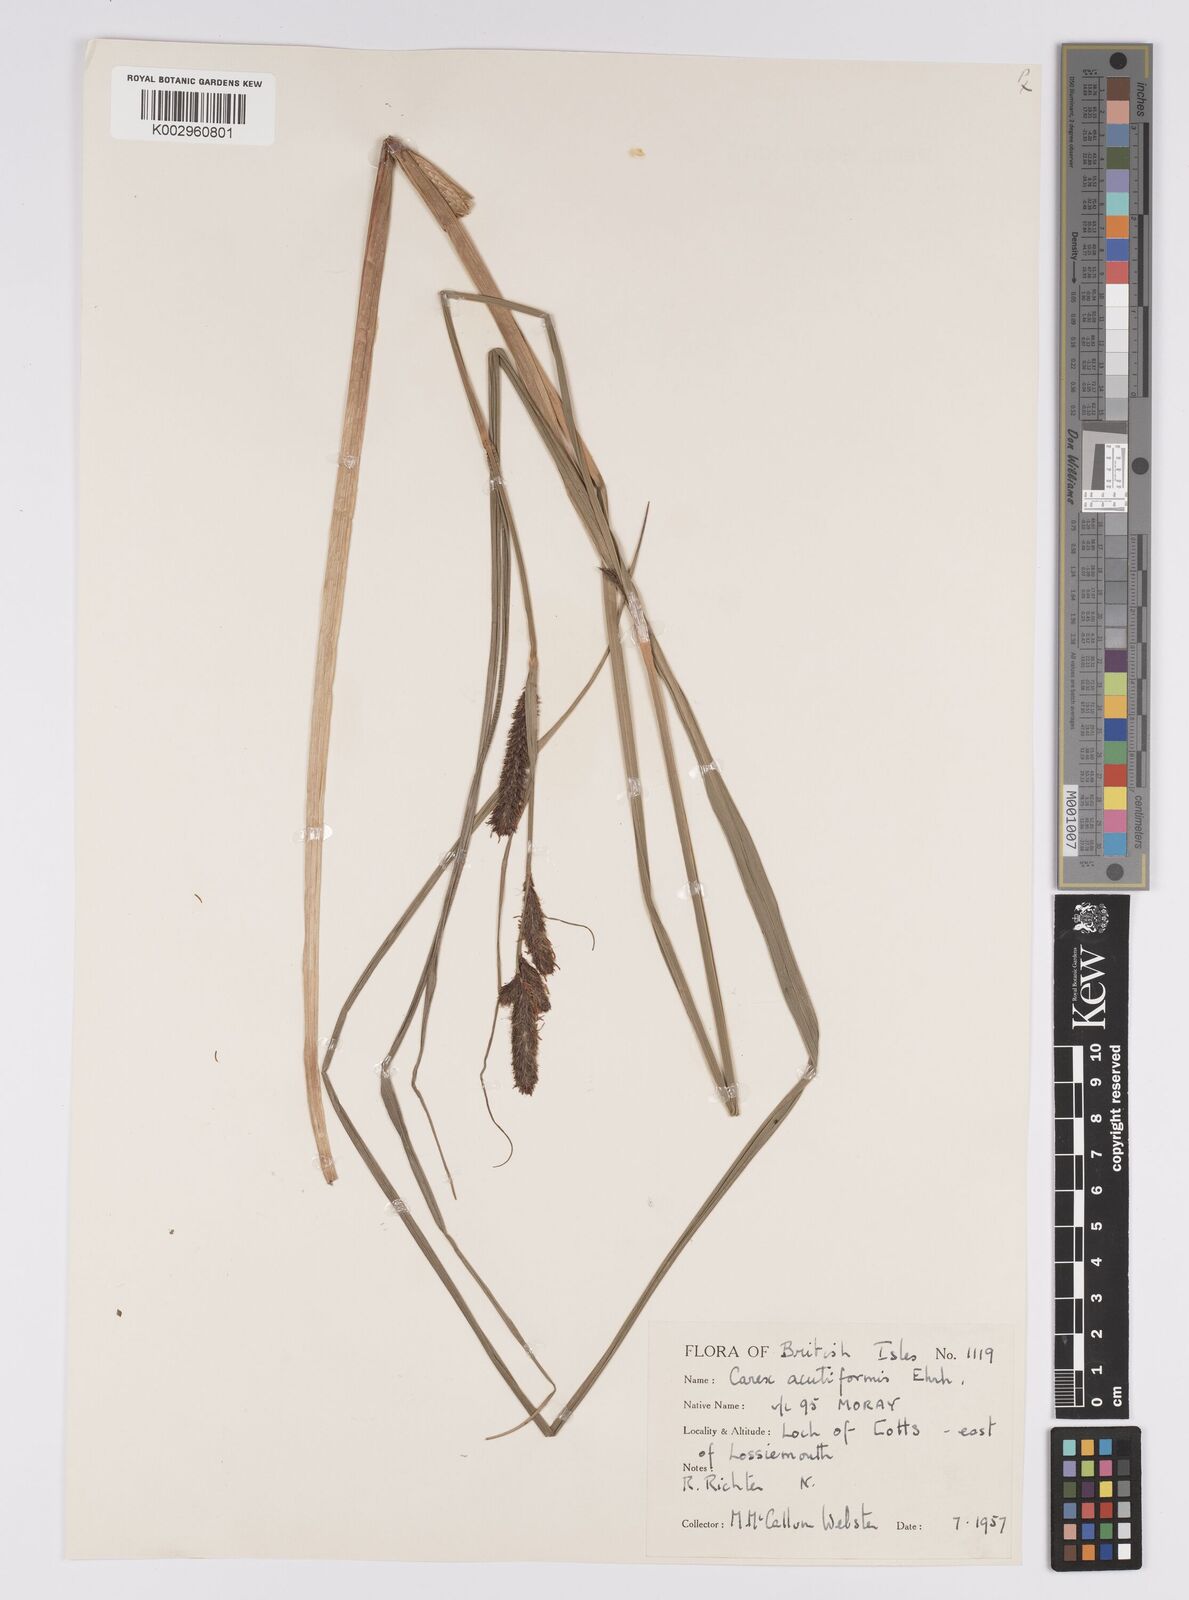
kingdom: Plantae
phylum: Tracheophyta
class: Liliopsida
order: Poales
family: Cyperaceae
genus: Carex
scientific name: Carex acutiformis
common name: Lesser pond-sedge
